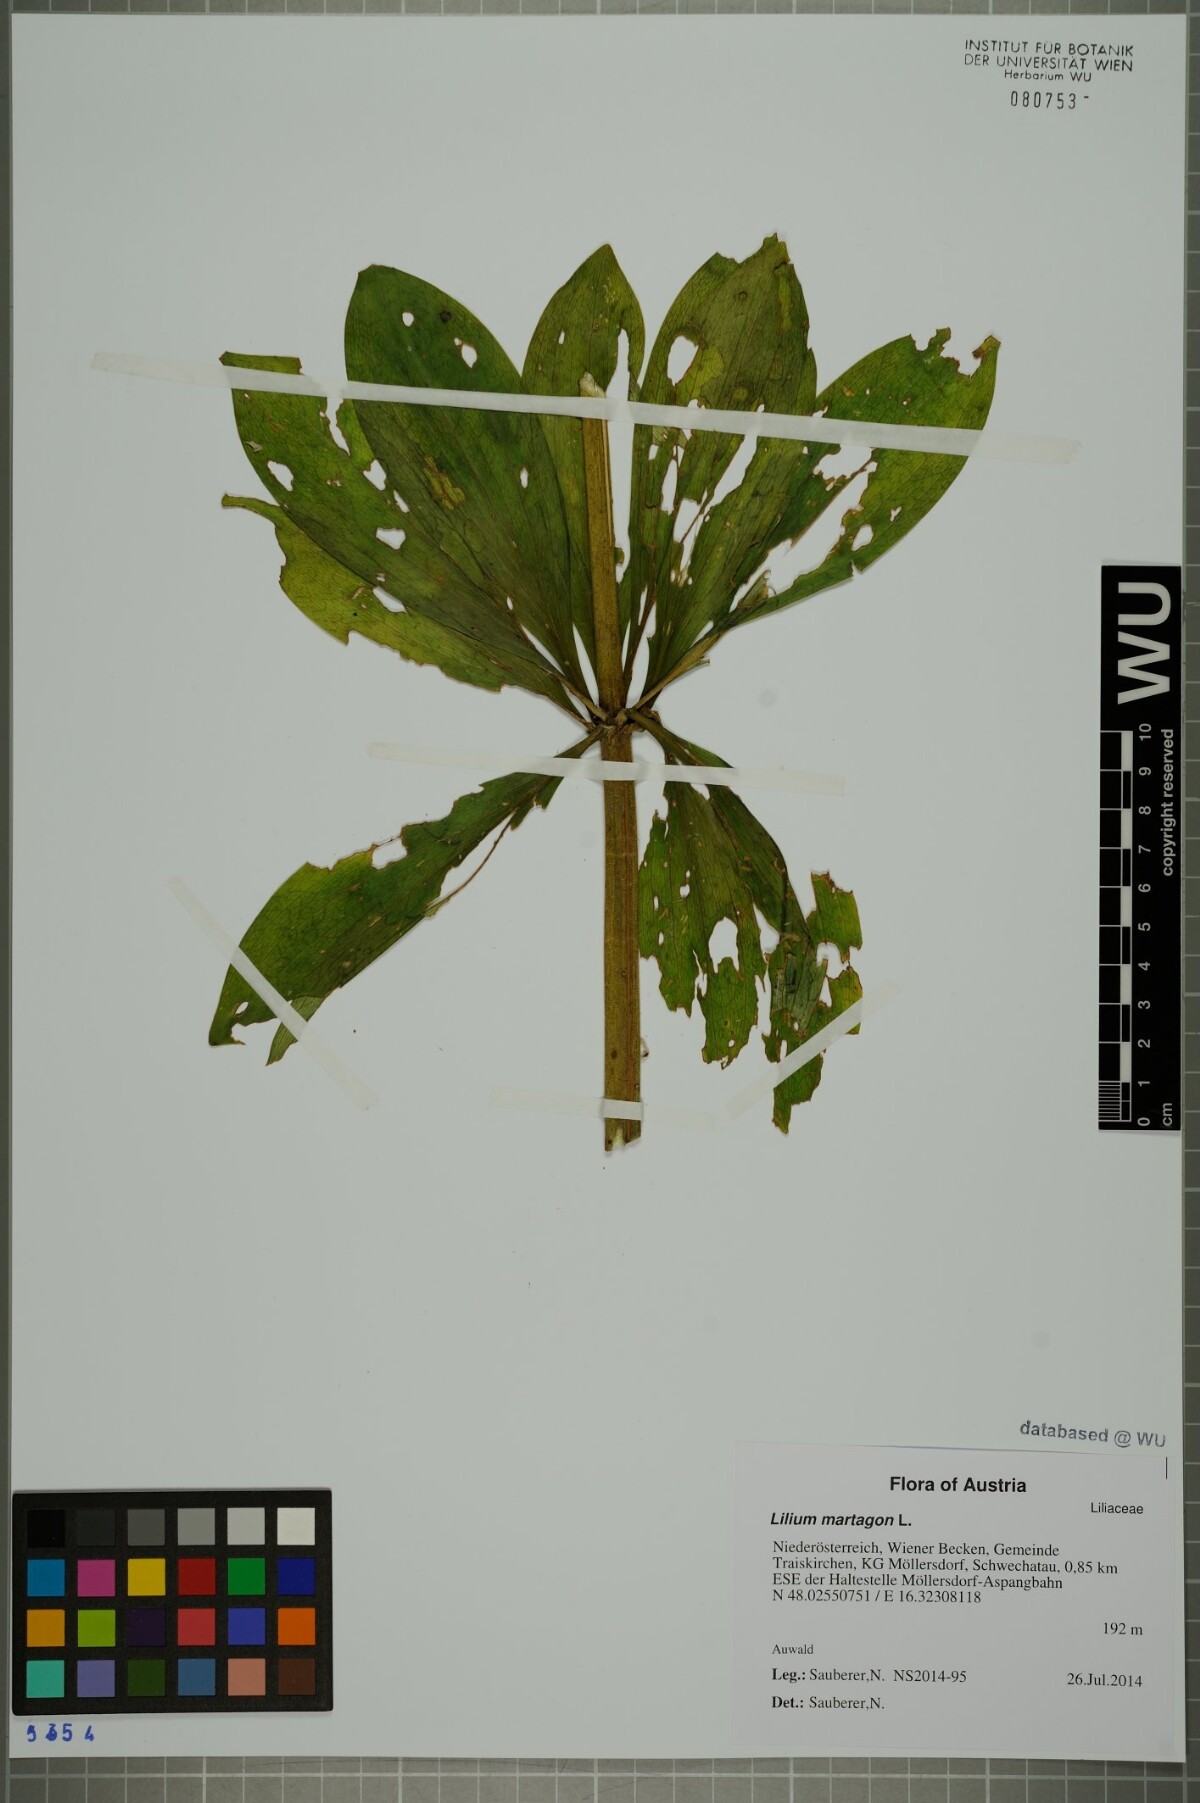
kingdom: Plantae
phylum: Tracheophyta
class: Liliopsida
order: Liliales
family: Liliaceae
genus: Lilium
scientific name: Lilium martagon
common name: Martagon lily
